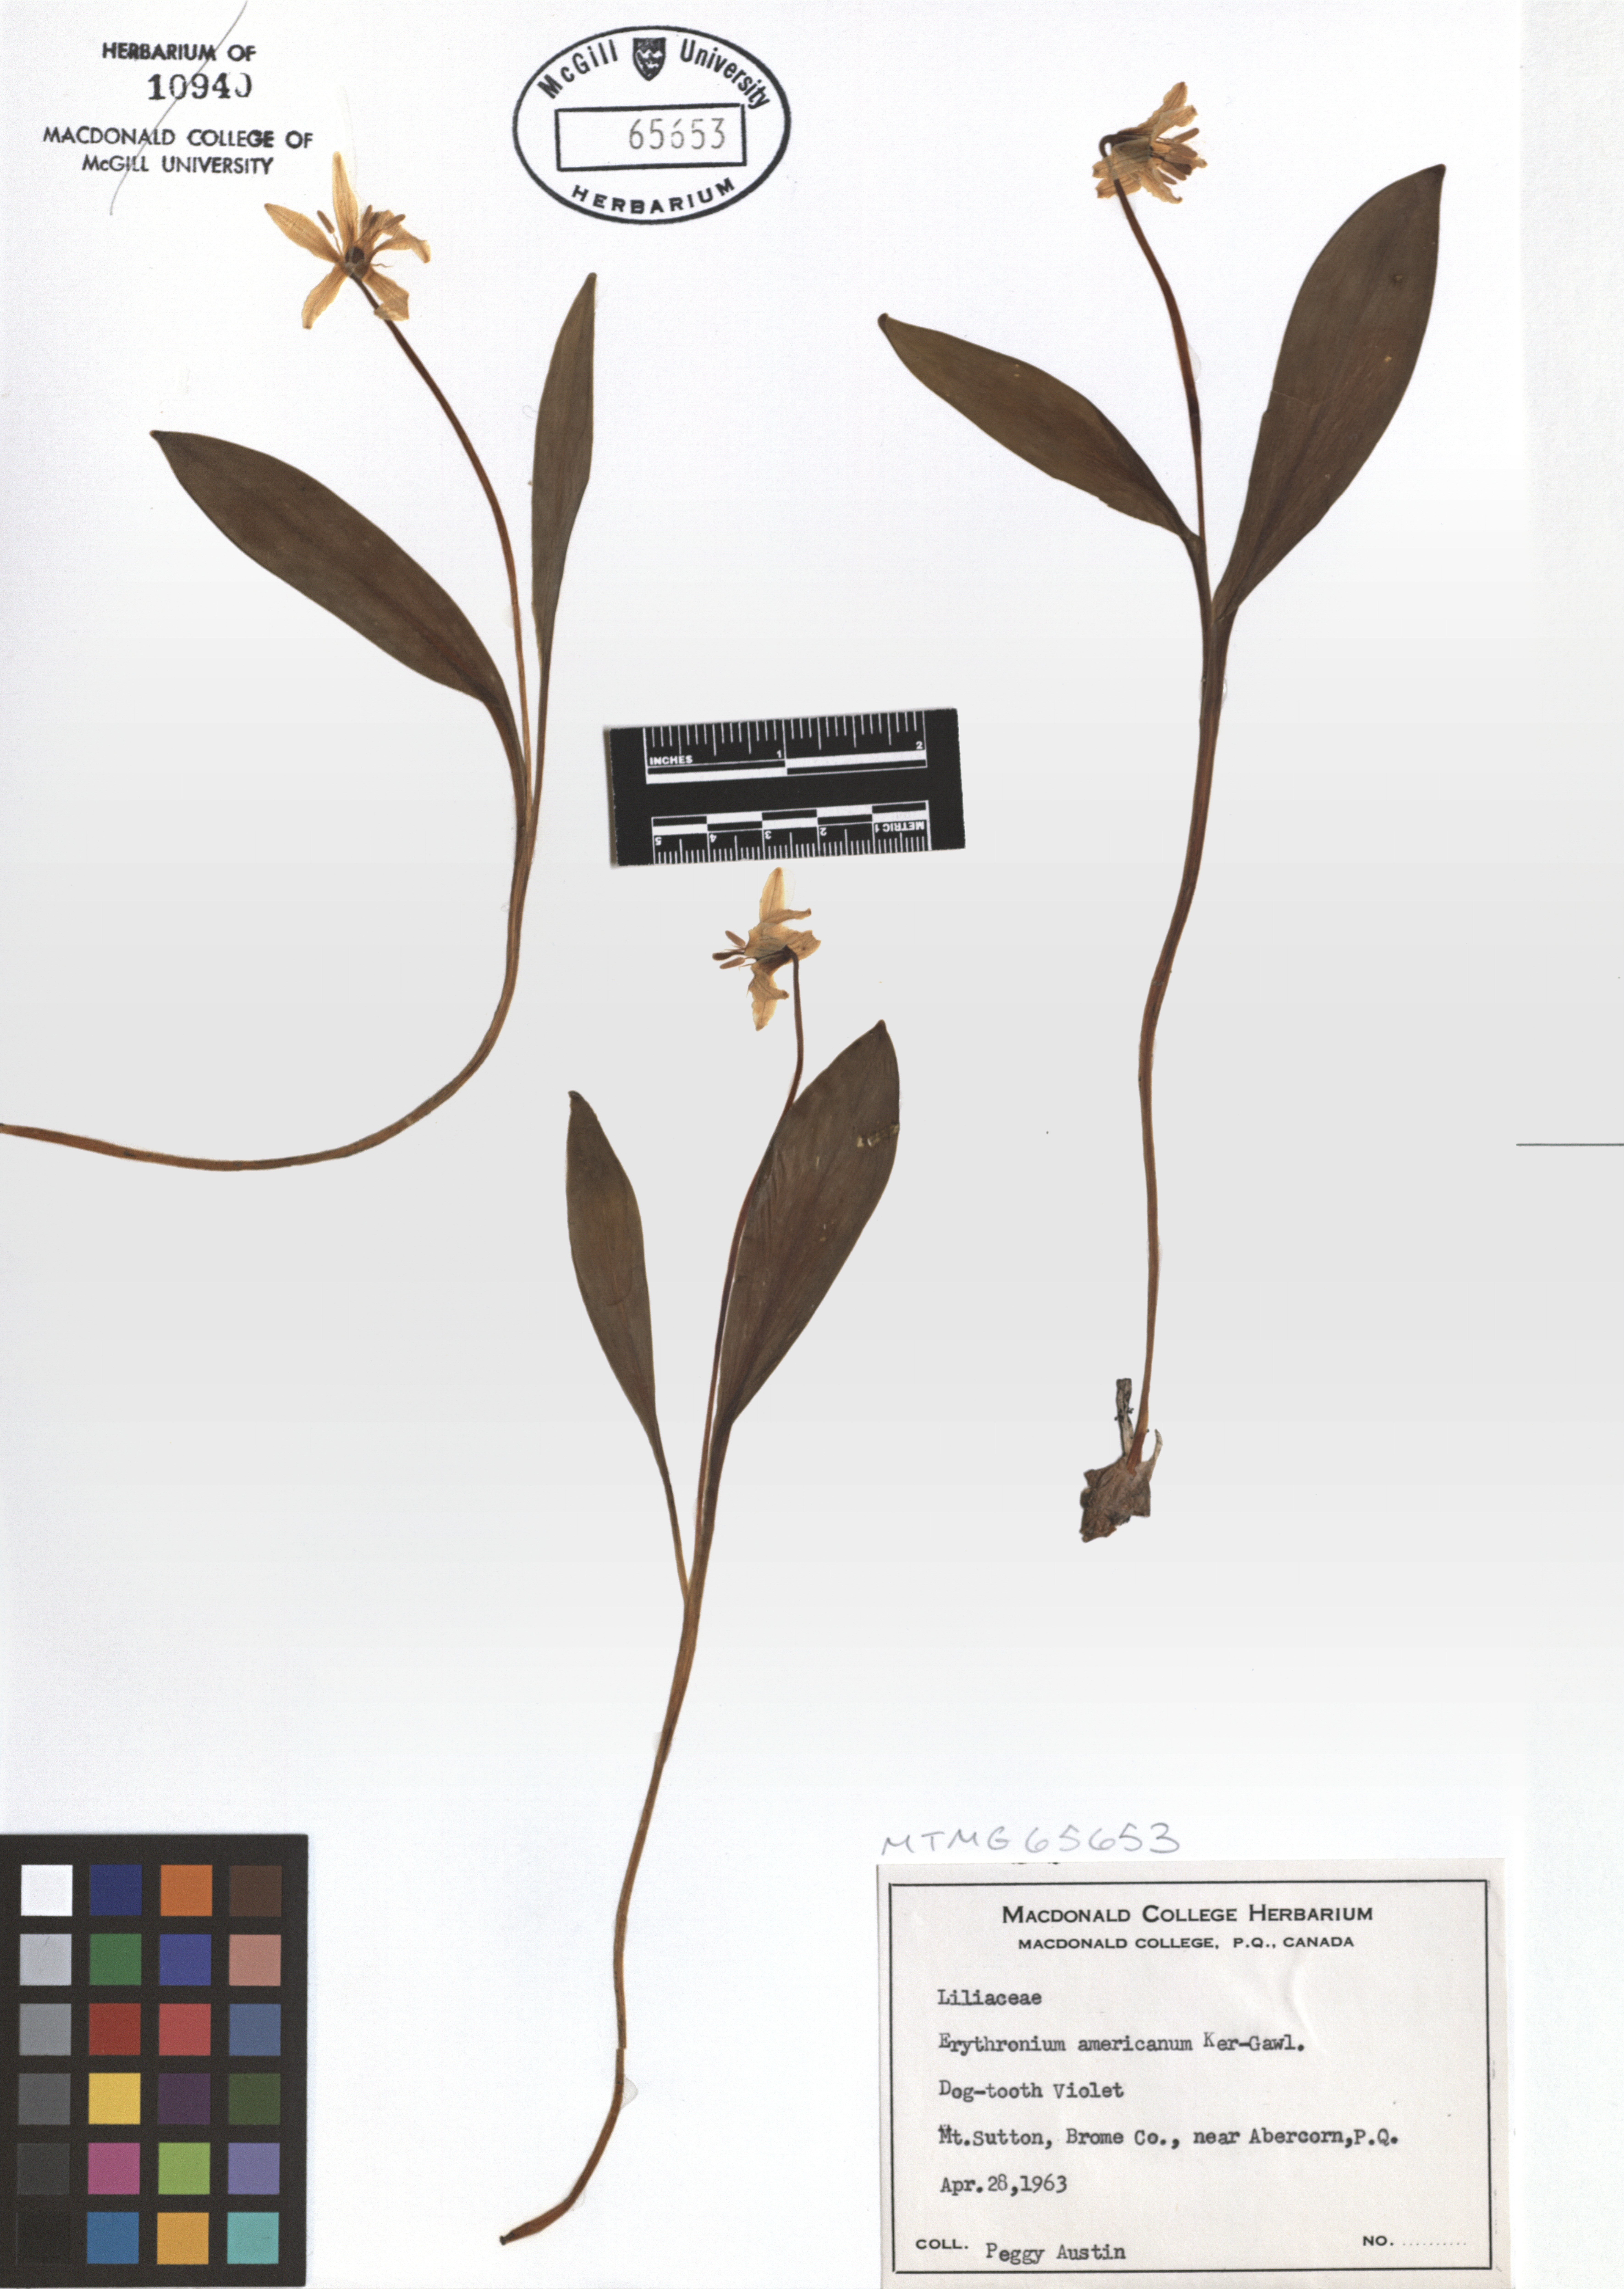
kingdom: Plantae
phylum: Tracheophyta
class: Liliopsida
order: Liliales
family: Liliaceae
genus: Erythronium
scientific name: Erythronium americanum
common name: Yellow adder's-tongue
